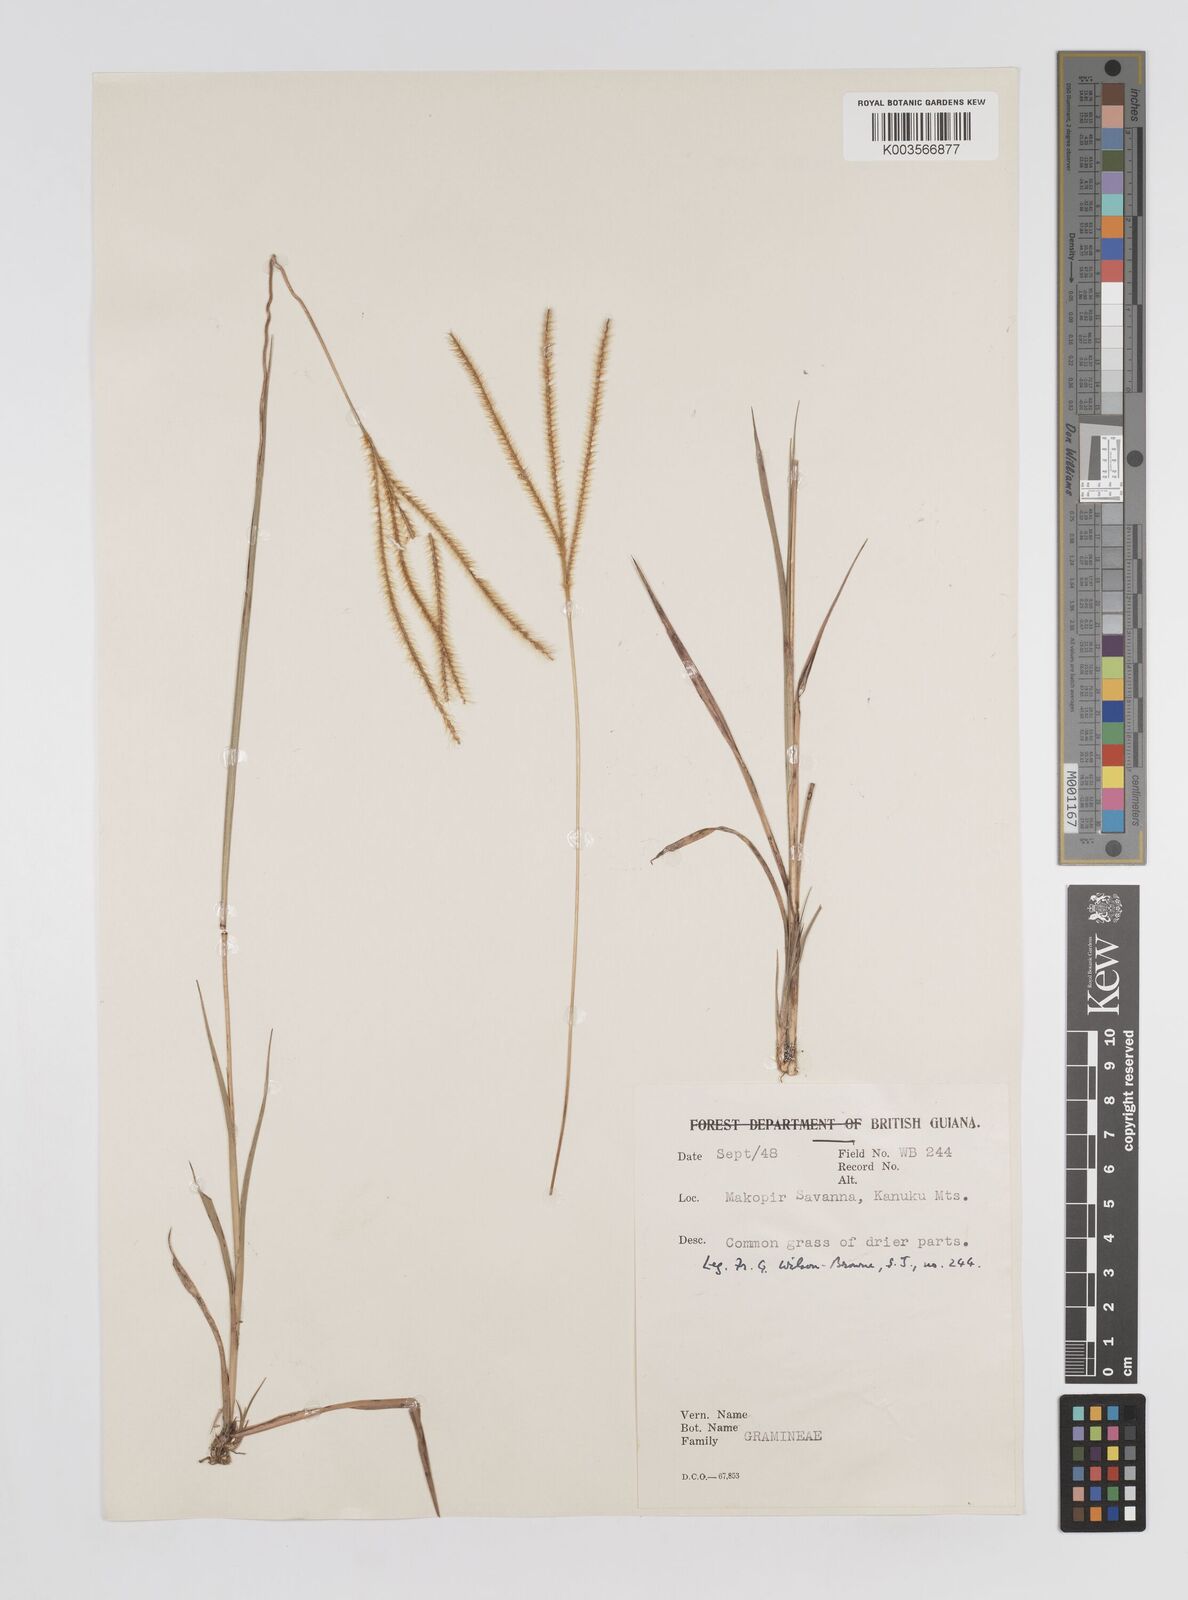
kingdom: Plantae
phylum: Tracheophyta
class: Liliopsida
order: Poales
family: Poaceae
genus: Axonopus
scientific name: Axonopus aureus
